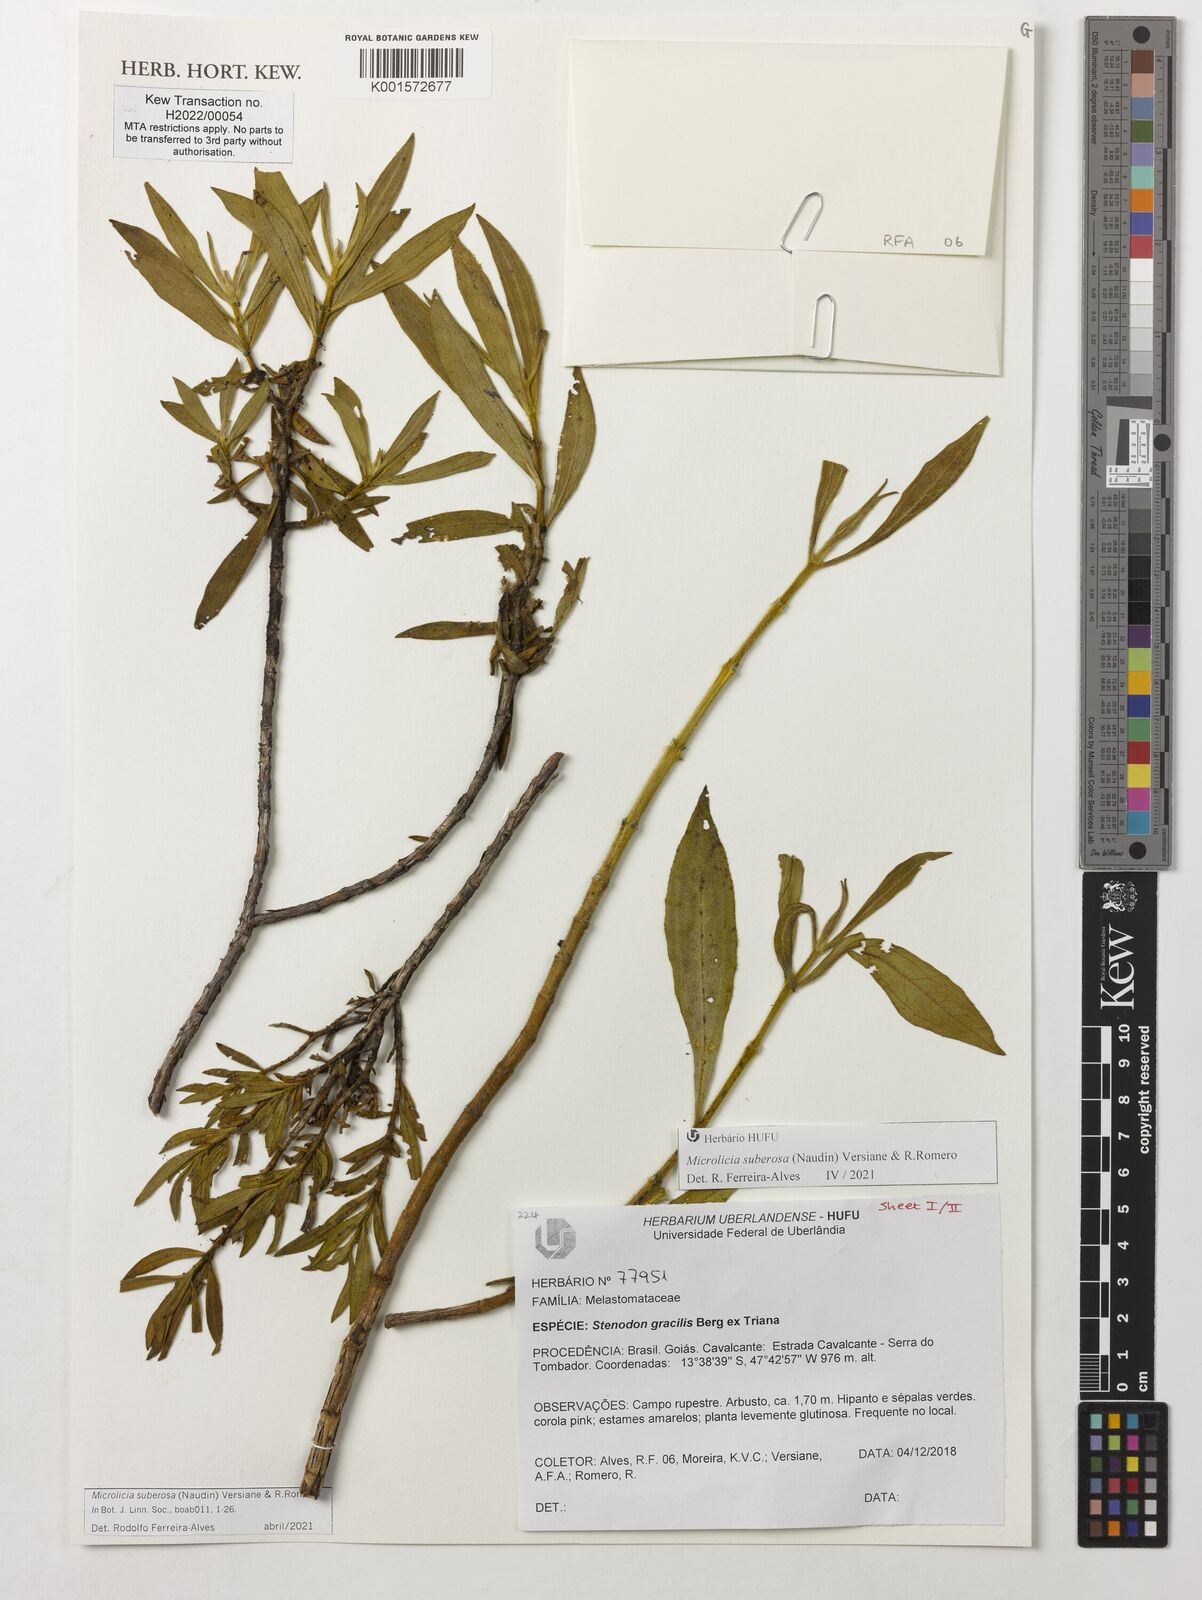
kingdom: Plantae
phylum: Tracheophyta
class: Magnoliopsida
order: Myrtales
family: Melastomataceae
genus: Microlicia
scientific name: Microlicia suberosa
